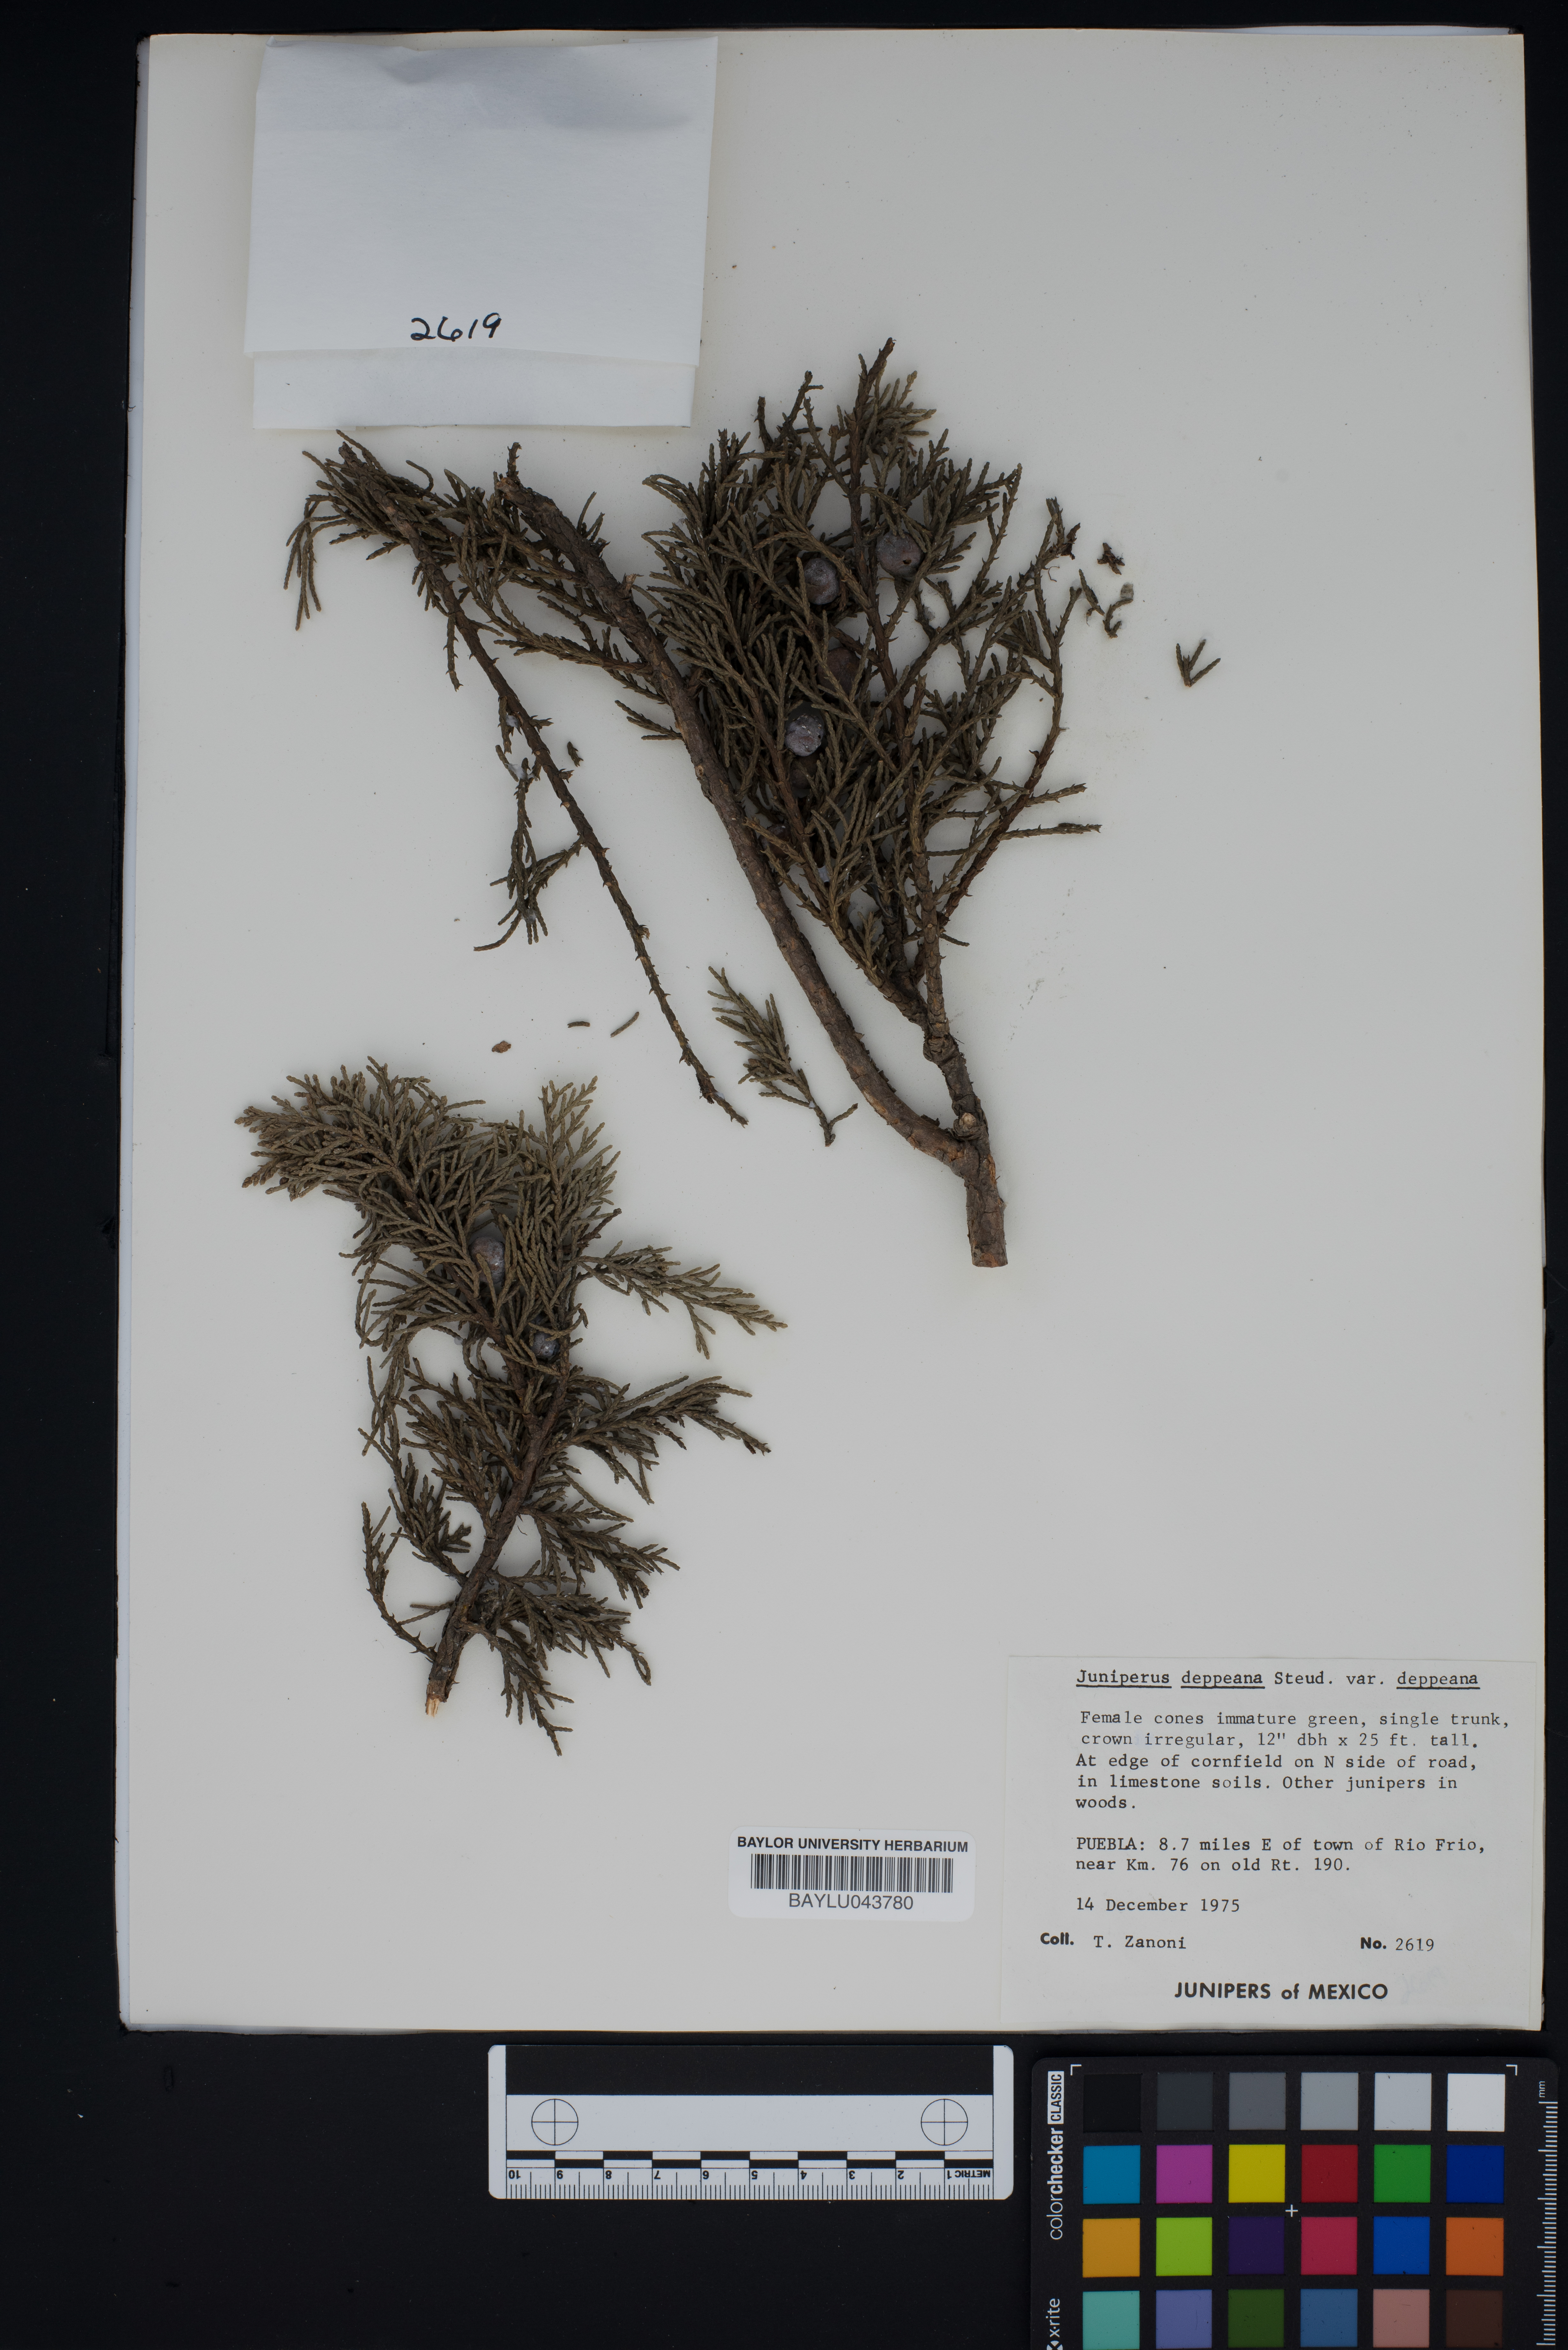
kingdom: Plantae
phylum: Tracheophyta
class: Pinopsida
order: Pinales
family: Cupressaceae
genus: Juniperus
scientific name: Juniperus deppeana
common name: Alligator juniper
